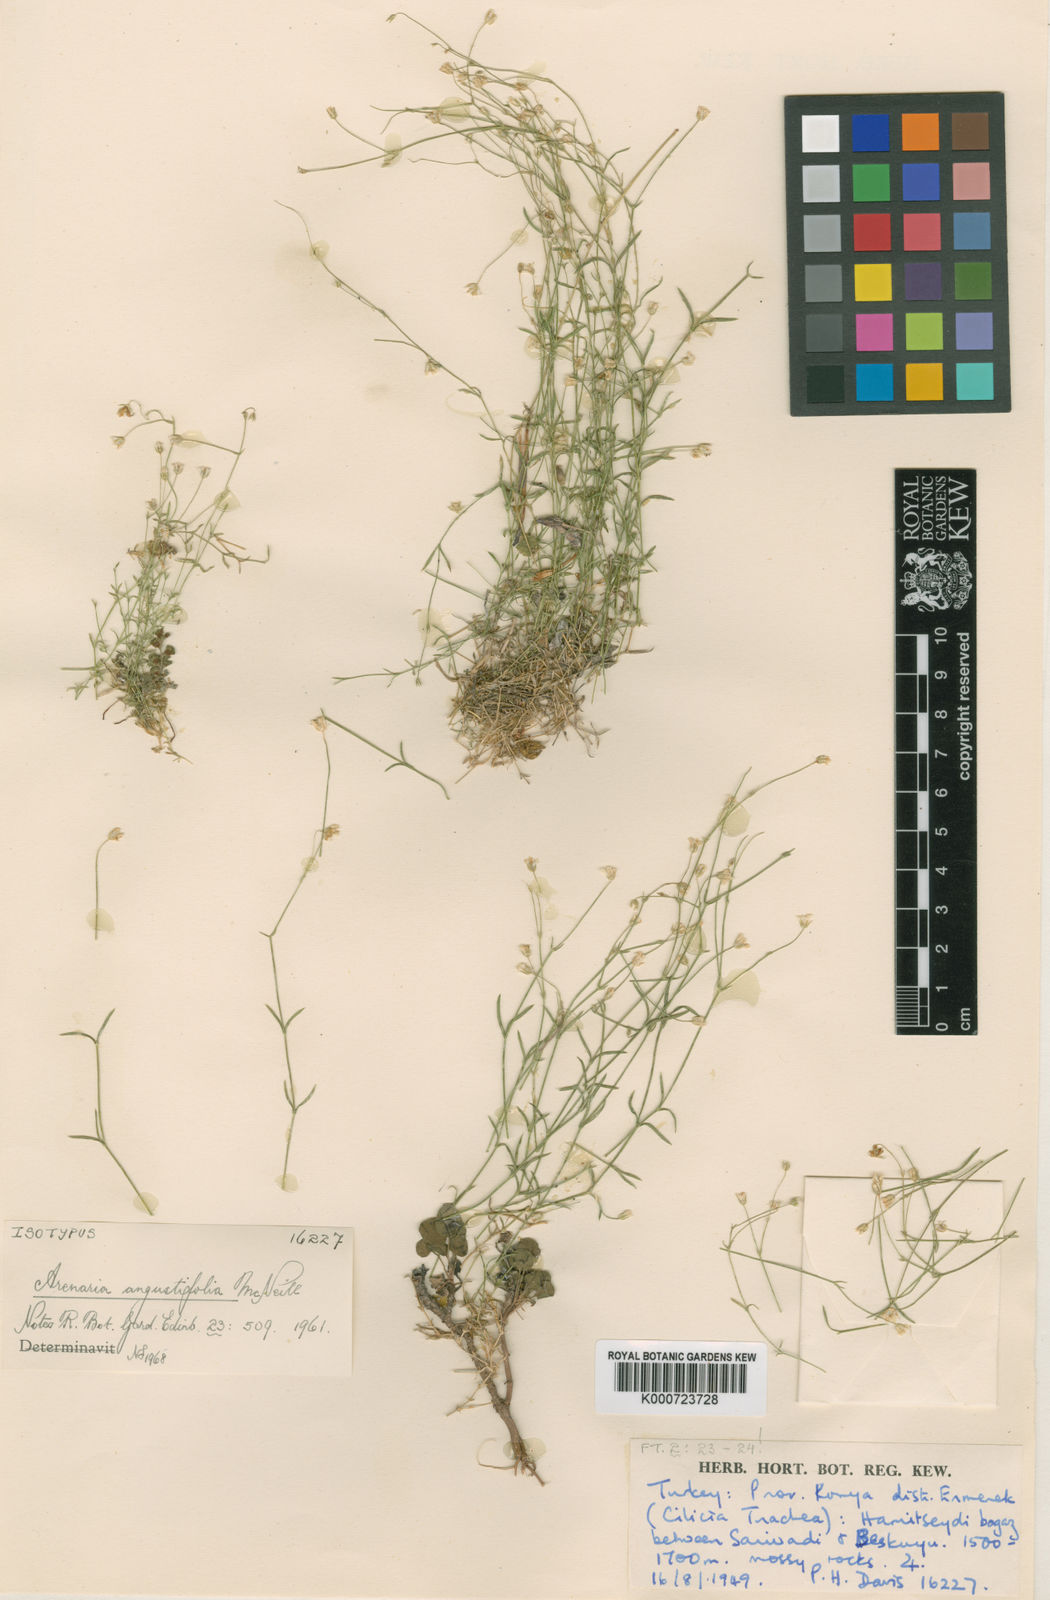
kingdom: Plantae
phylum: Tracheophyta
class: Magnoliopsida
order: Caryophyllales
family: Caryophyllaceae
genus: Arenaria
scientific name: Arenaria angustifolia
